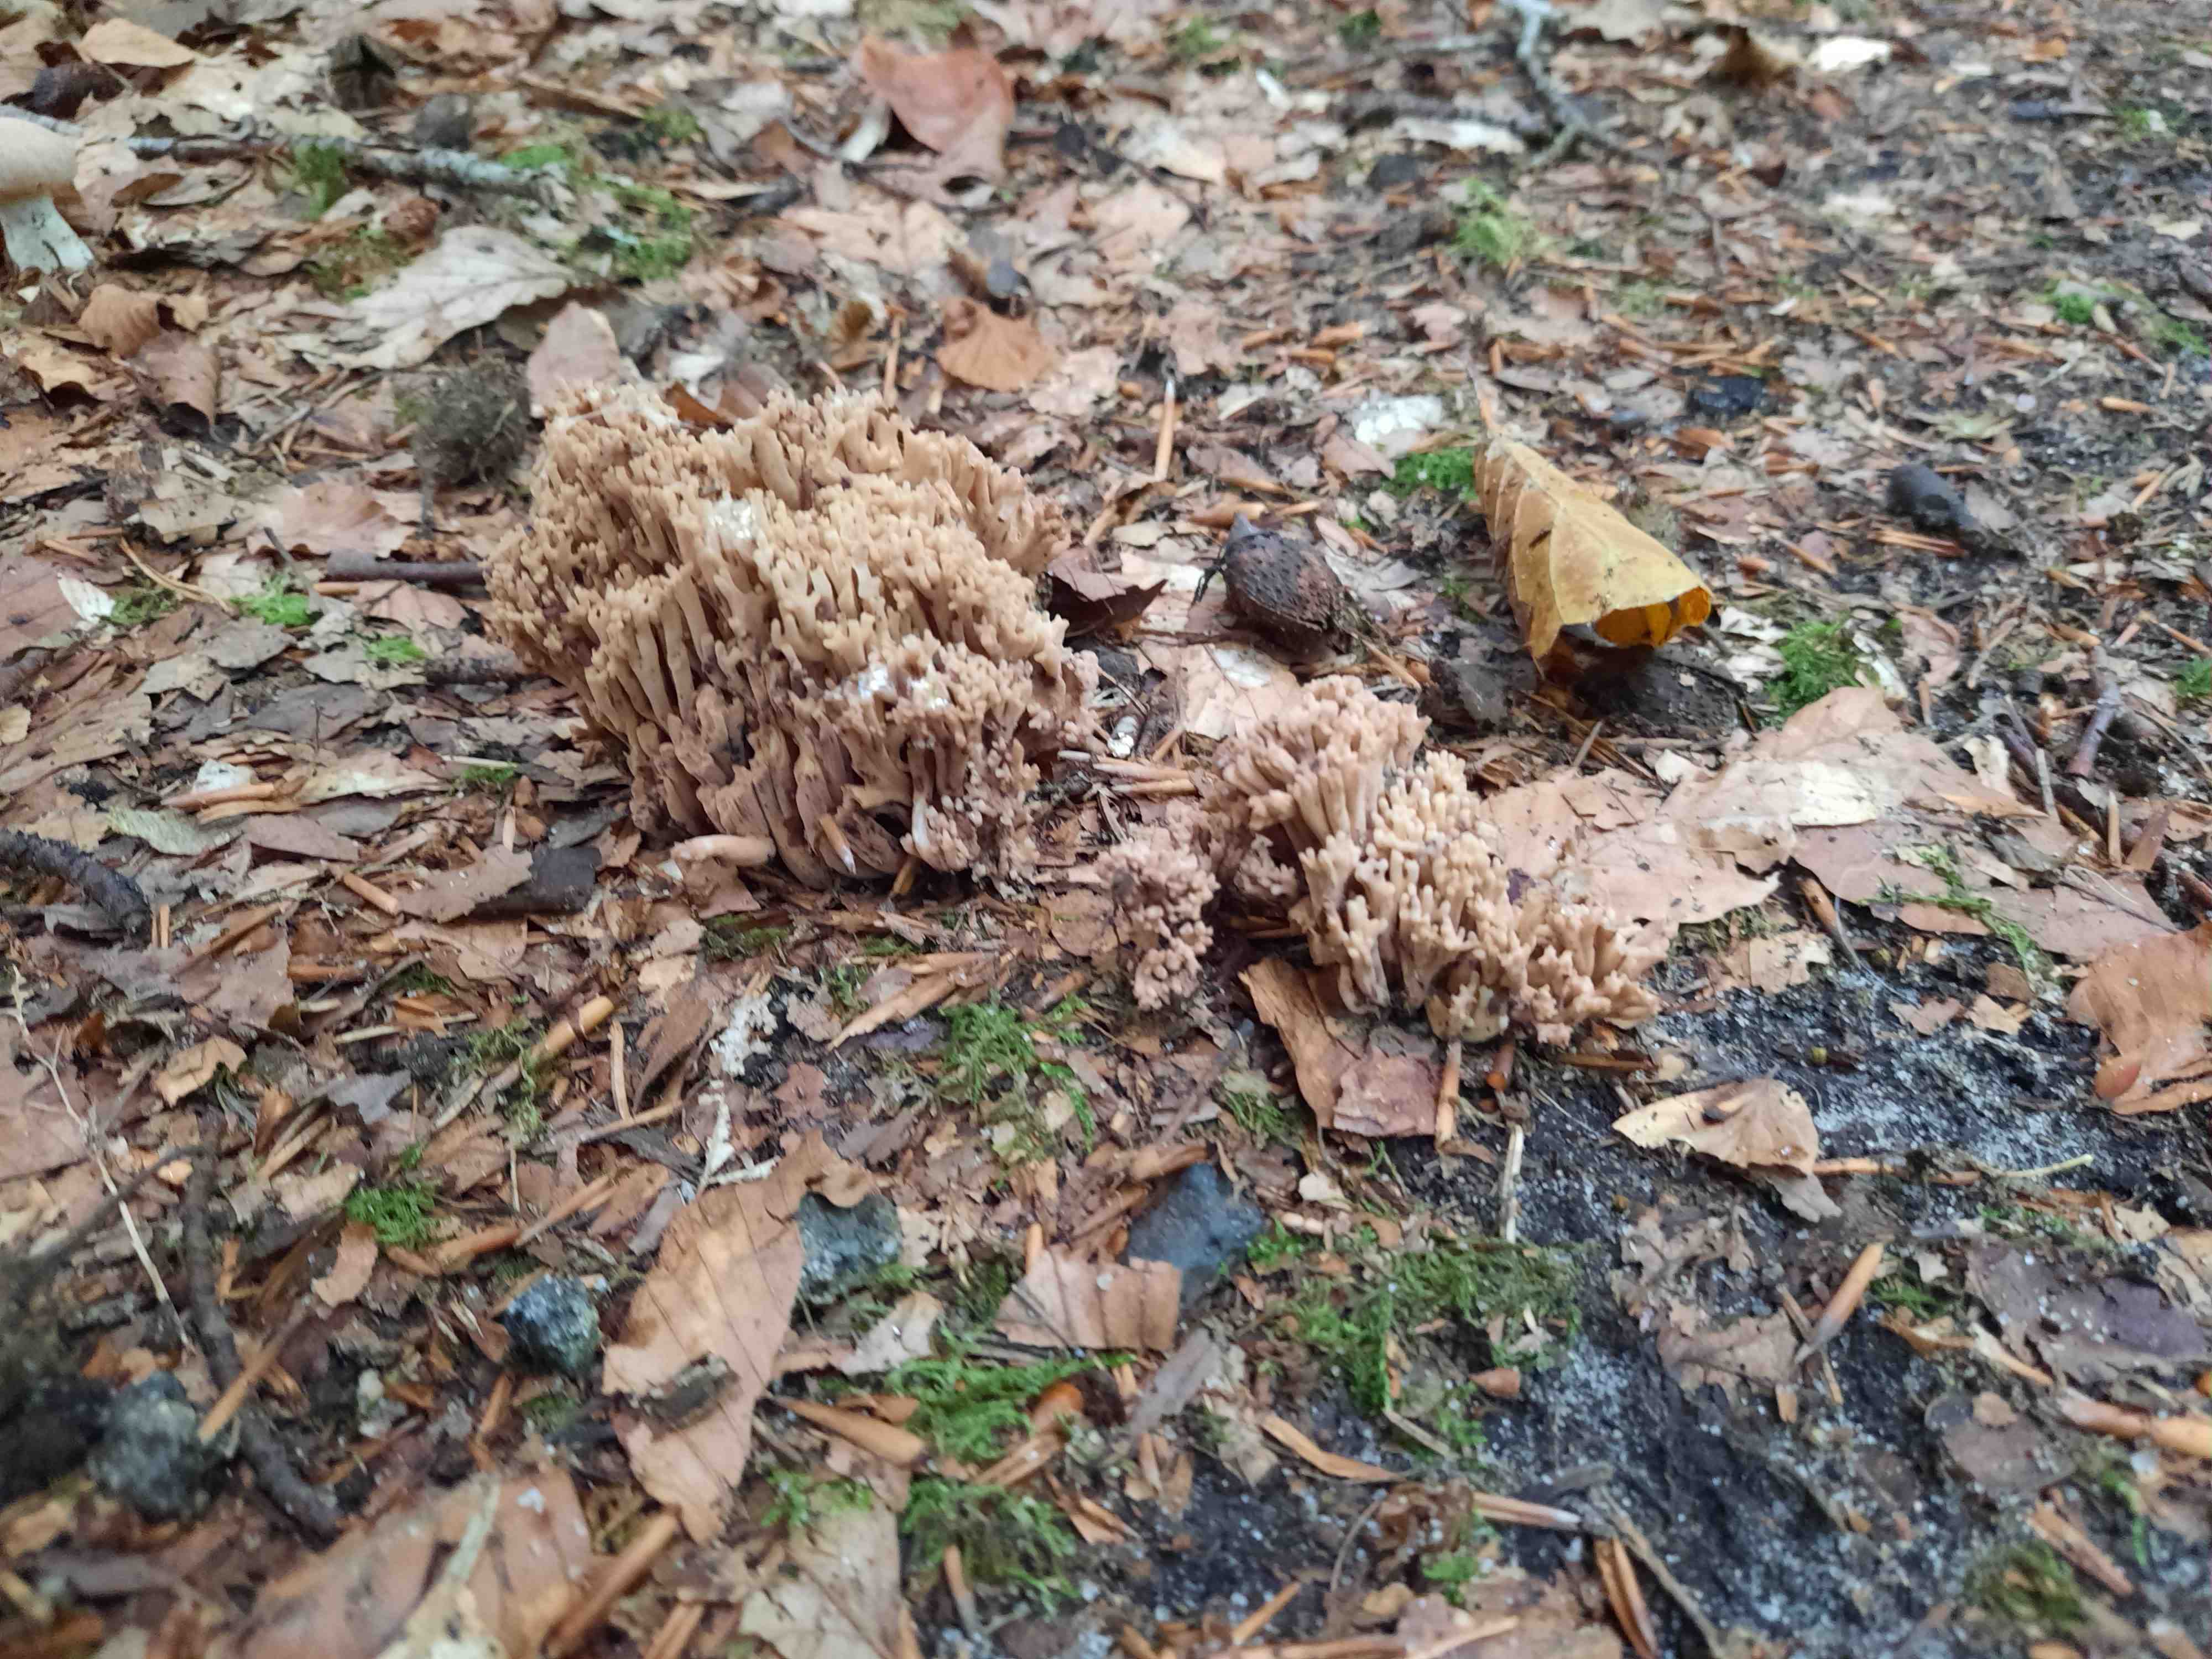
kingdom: Fungi
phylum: Basidiomycota
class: Agaricomycetes
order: Gomphales
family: Gomphaceae
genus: Ramaria
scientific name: Ramaria
